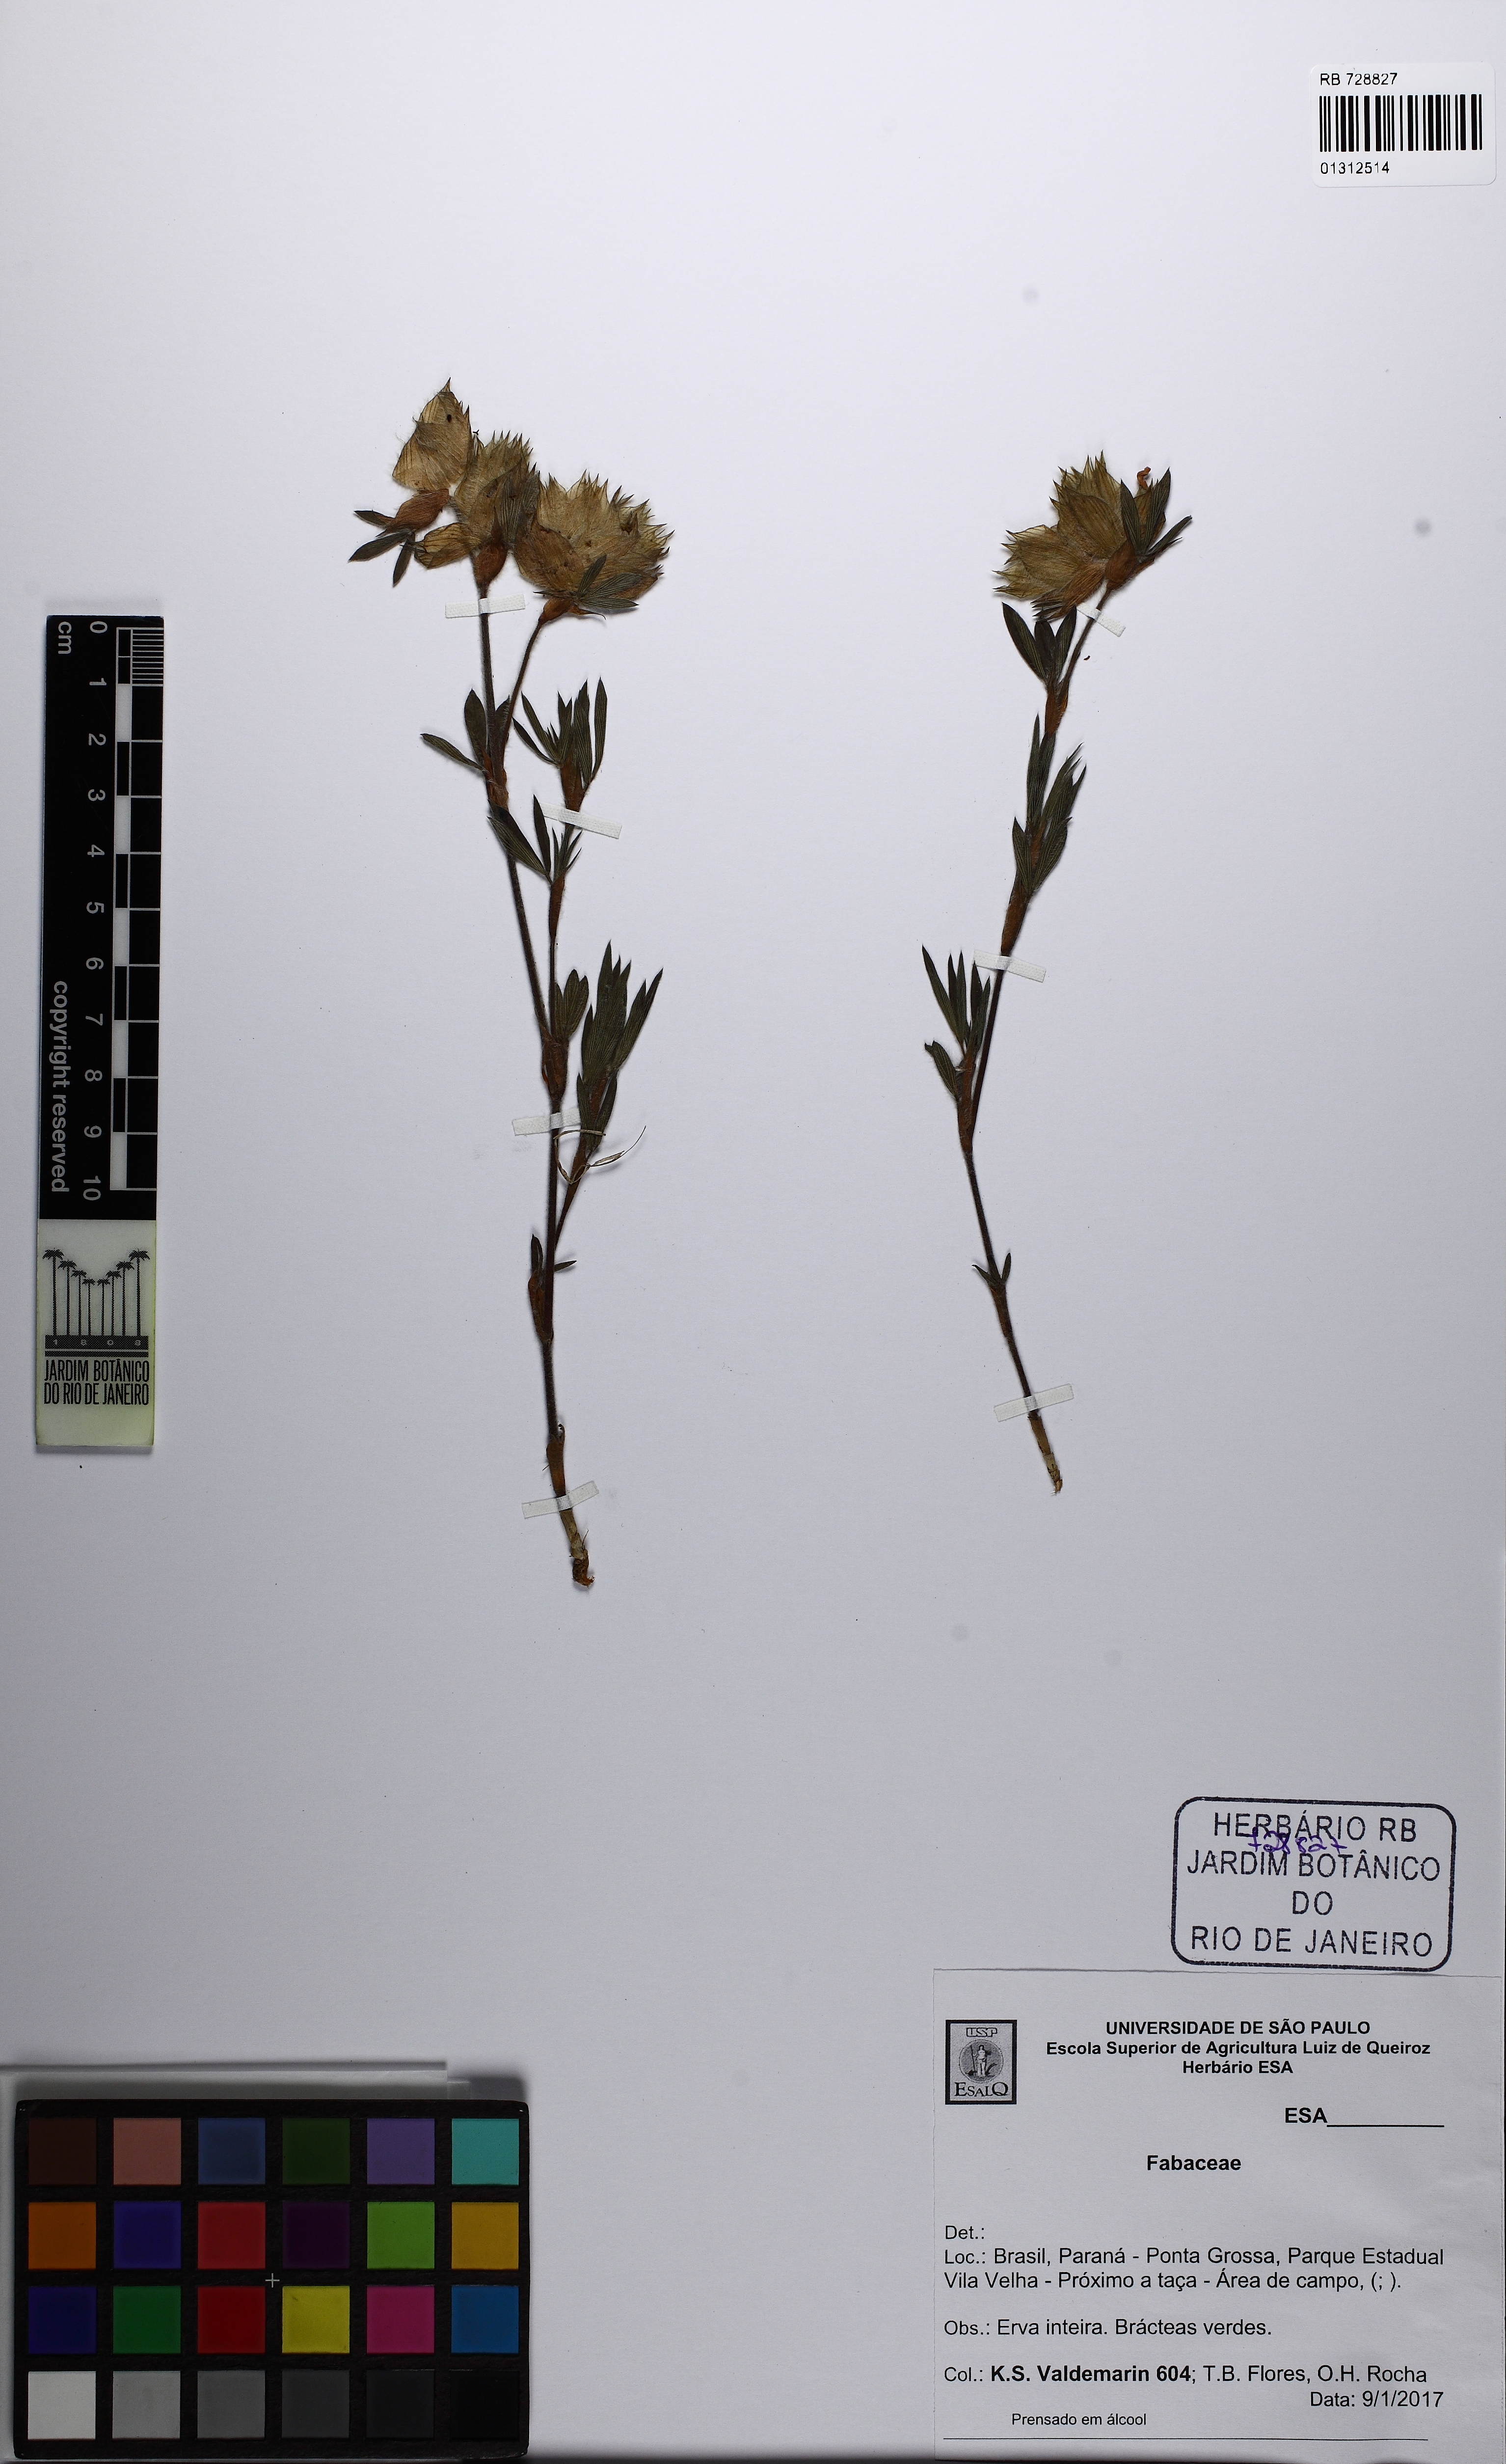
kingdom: Plantae
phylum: Tracheophyta
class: Magnoliopsida
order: Fabales
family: Fabaceae
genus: Stylosanthes
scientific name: Stylosanthes bracteata
